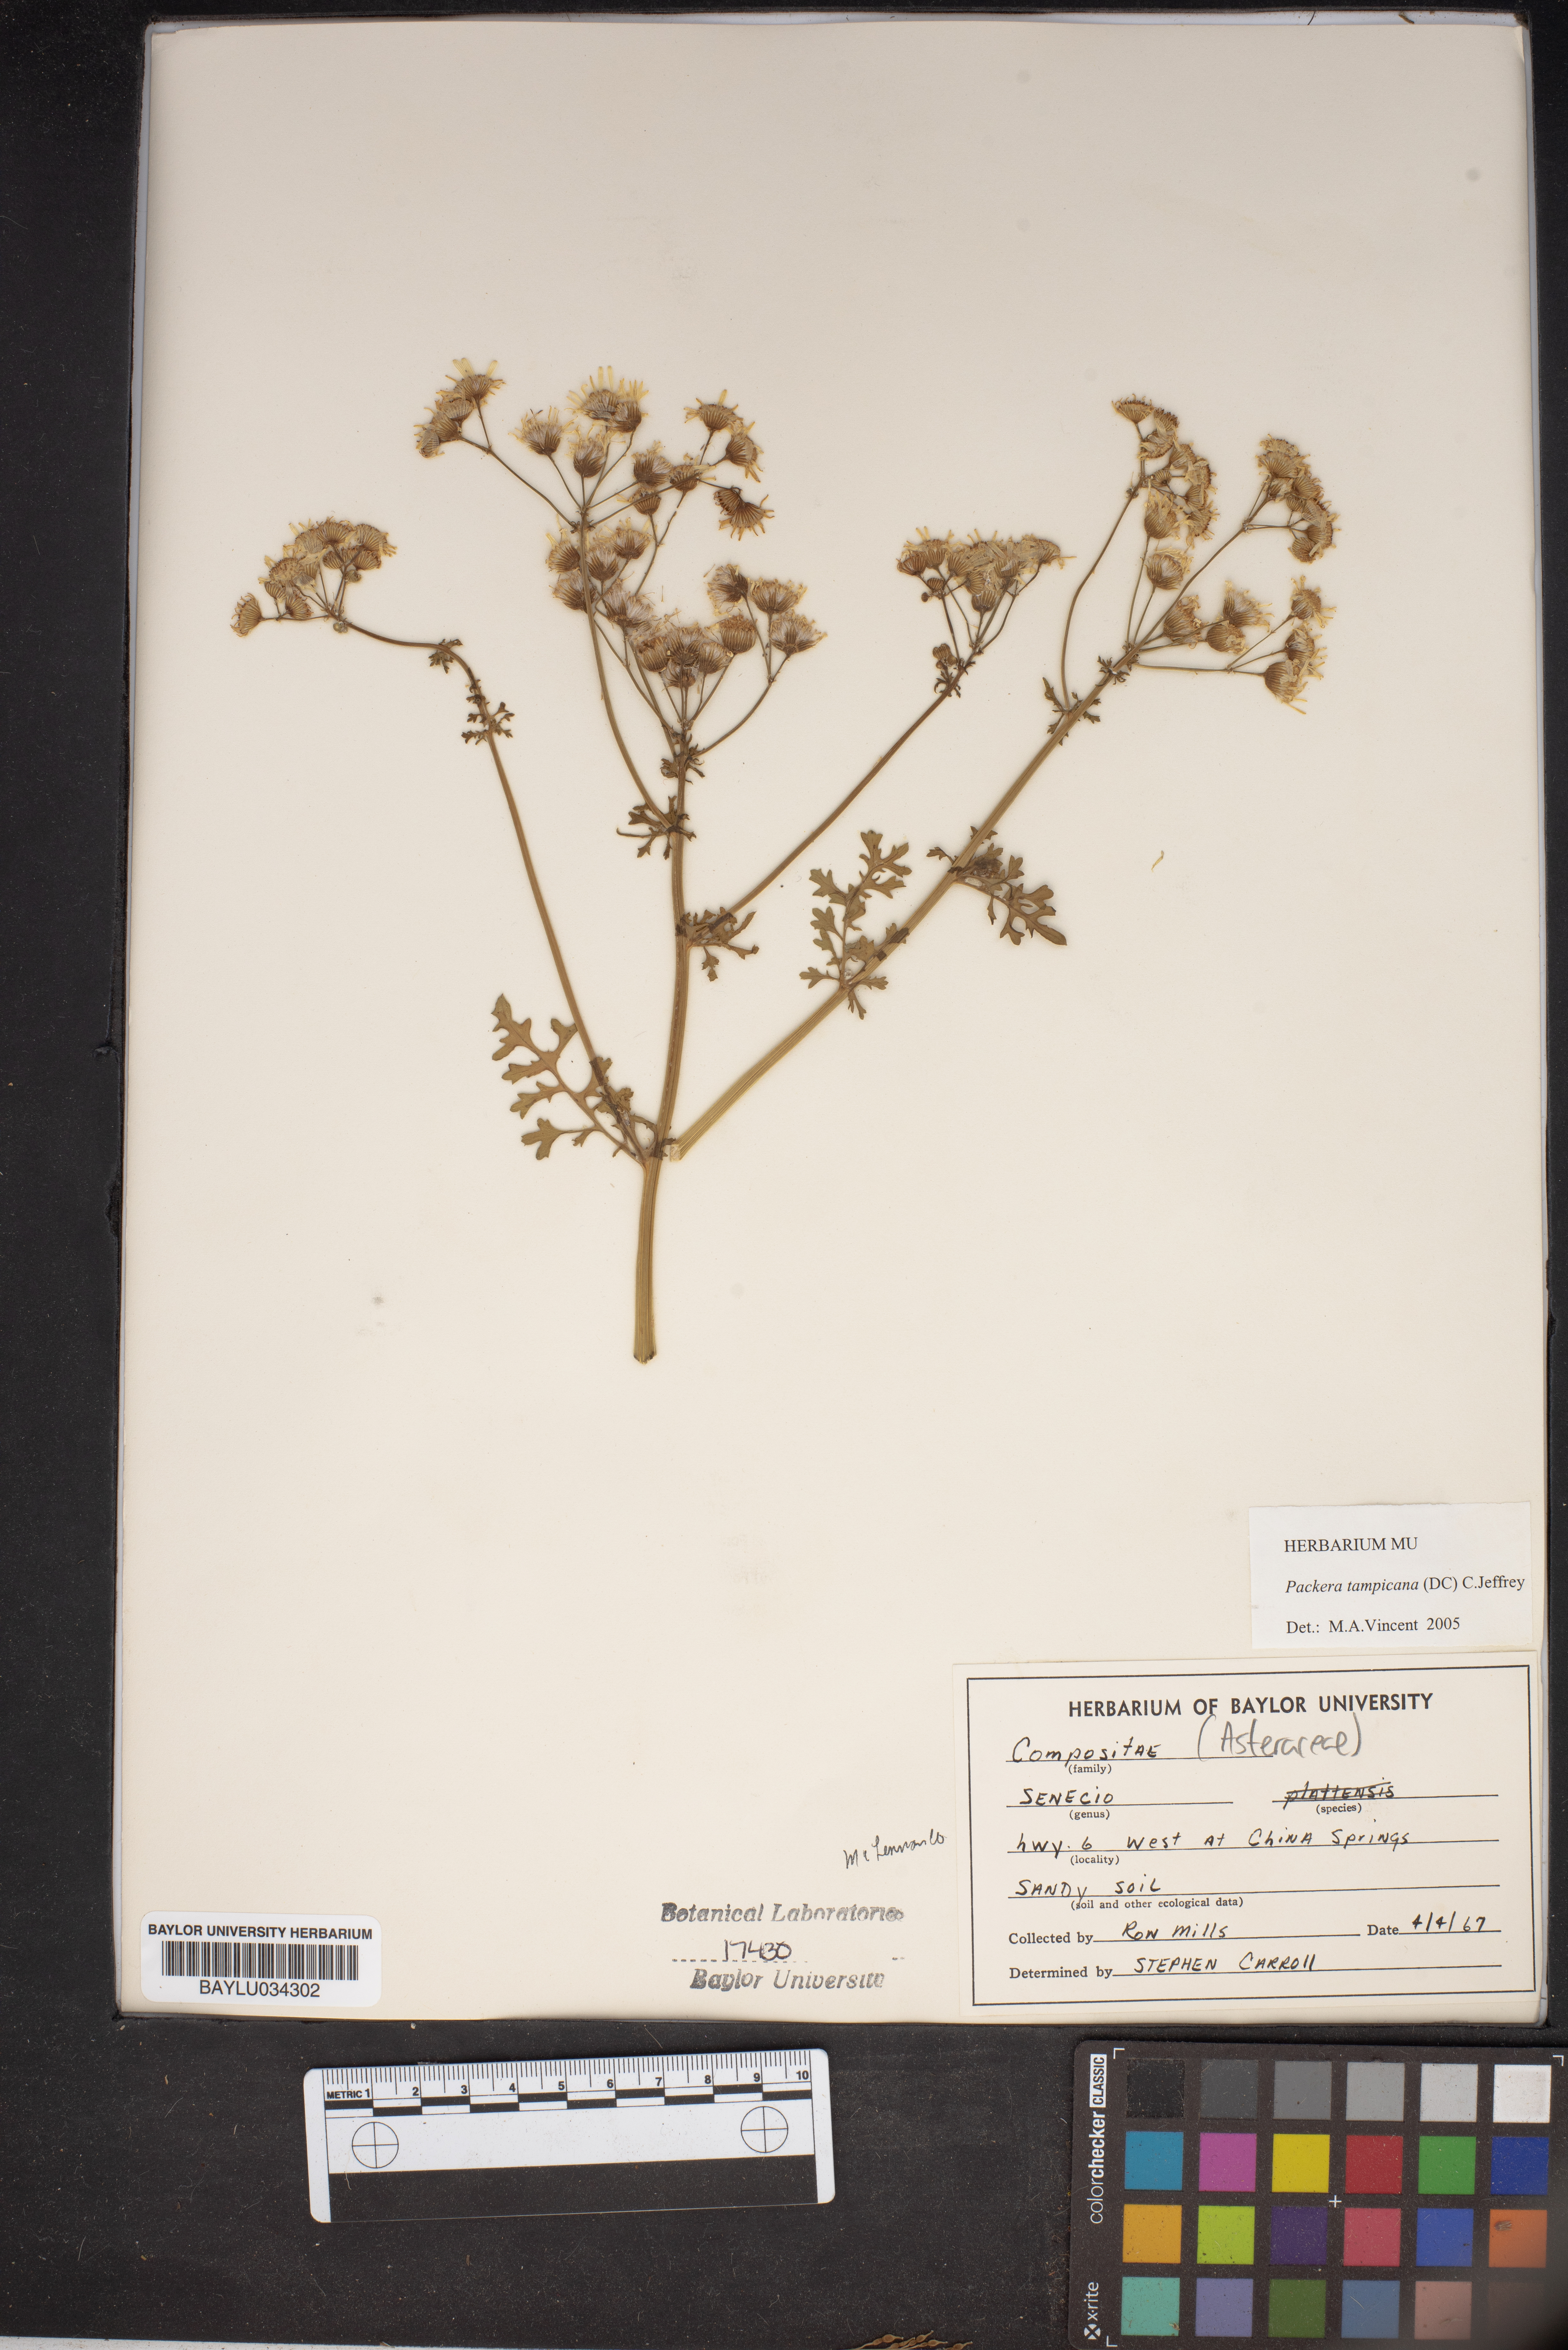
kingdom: Plantae
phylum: Tracheophyta
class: Magnoliopsida
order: Asterales
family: Asteraceae
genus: Packera
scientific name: Packera tampicana
